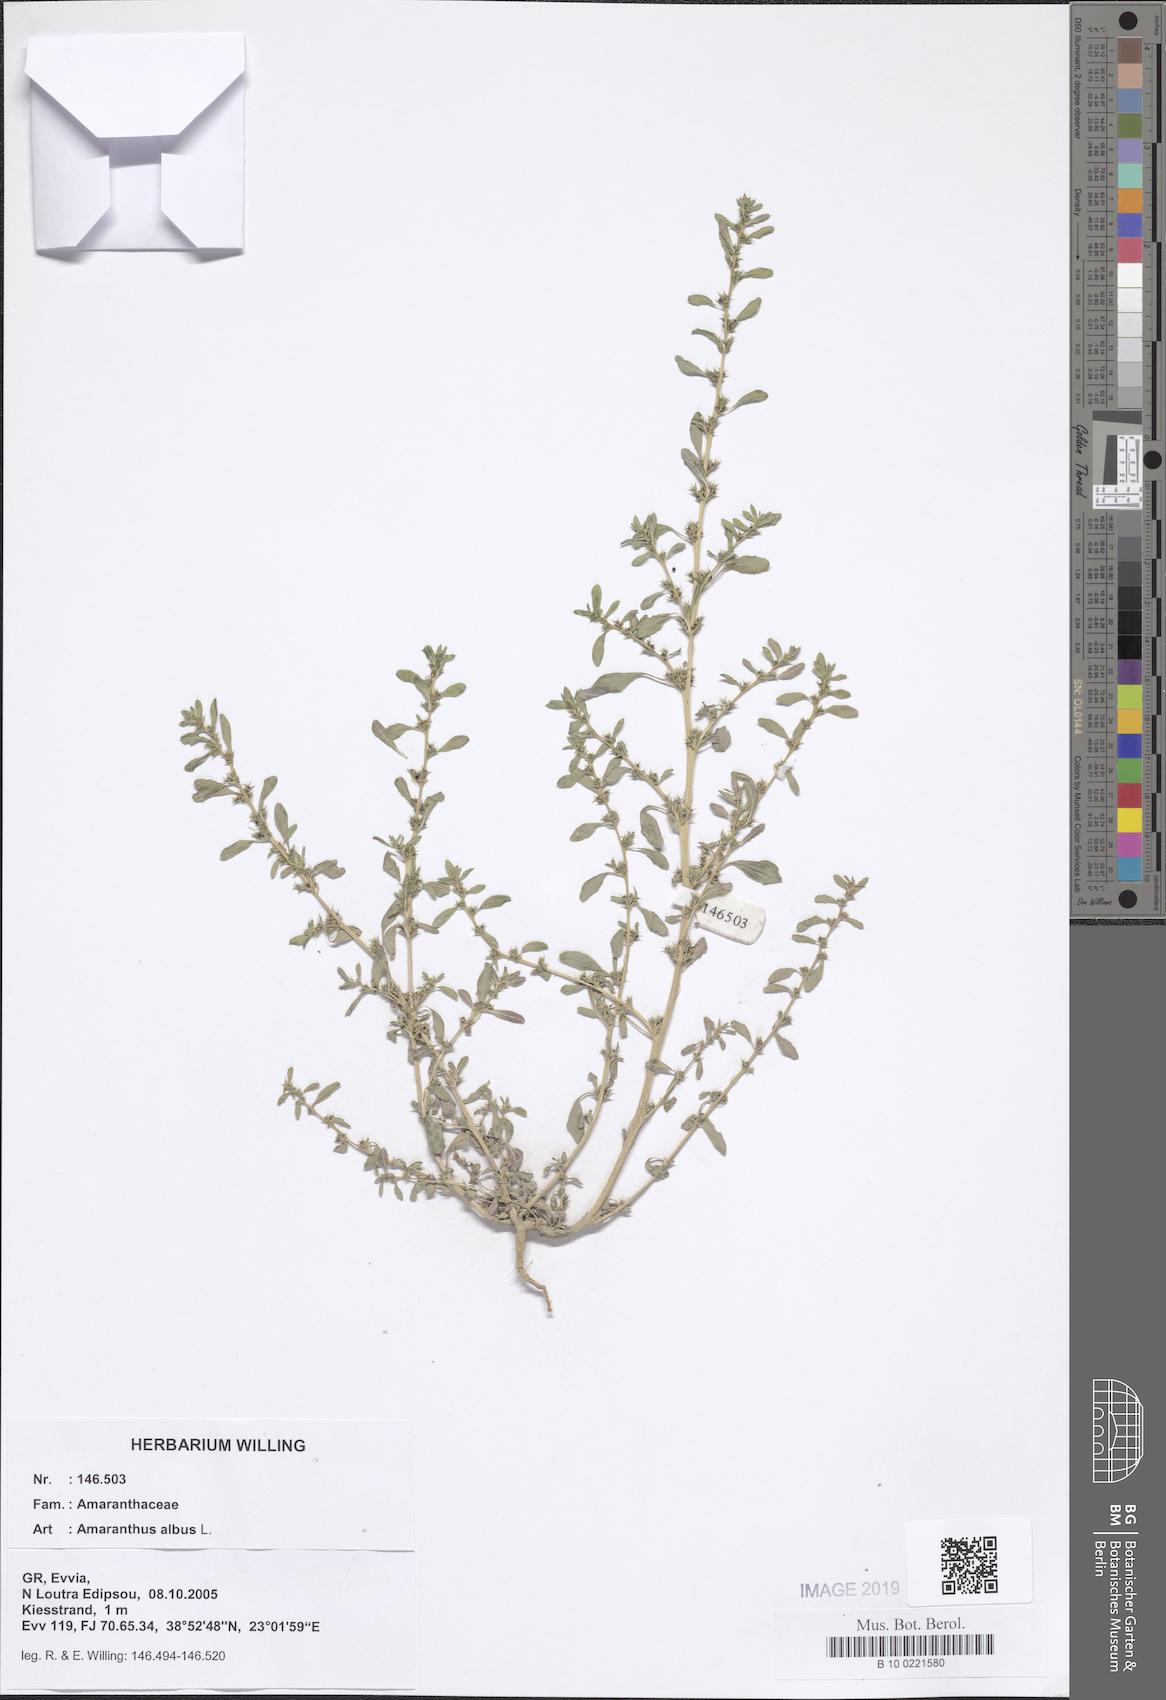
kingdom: Plantae
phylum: Tracheophyta
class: Magnoliopsida
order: Caryophyllales
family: Amaranthaceae
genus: Amaranthus
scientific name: Amaranthus albus
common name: White pigweed
